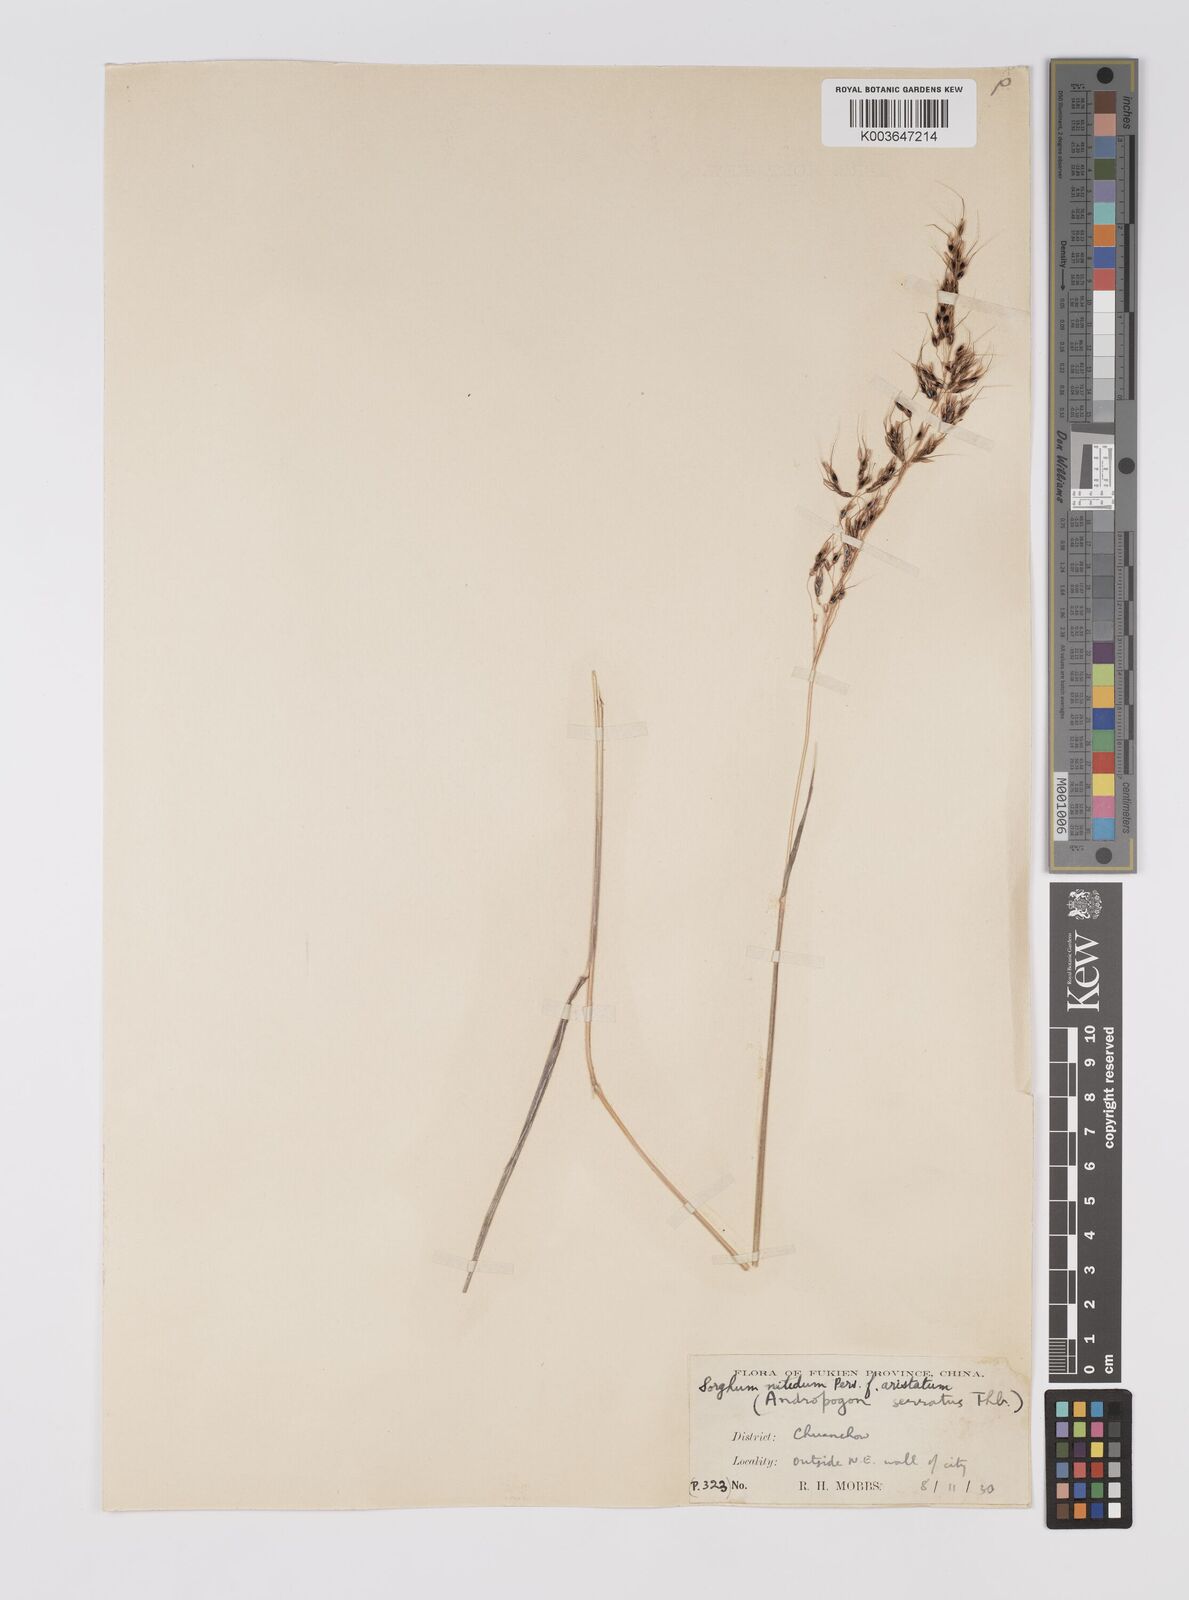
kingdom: Plantae
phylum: Tracheophyta
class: Liliopsida
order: Poales
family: Poaceae
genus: Sorghum
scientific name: Sorghum nitidum
